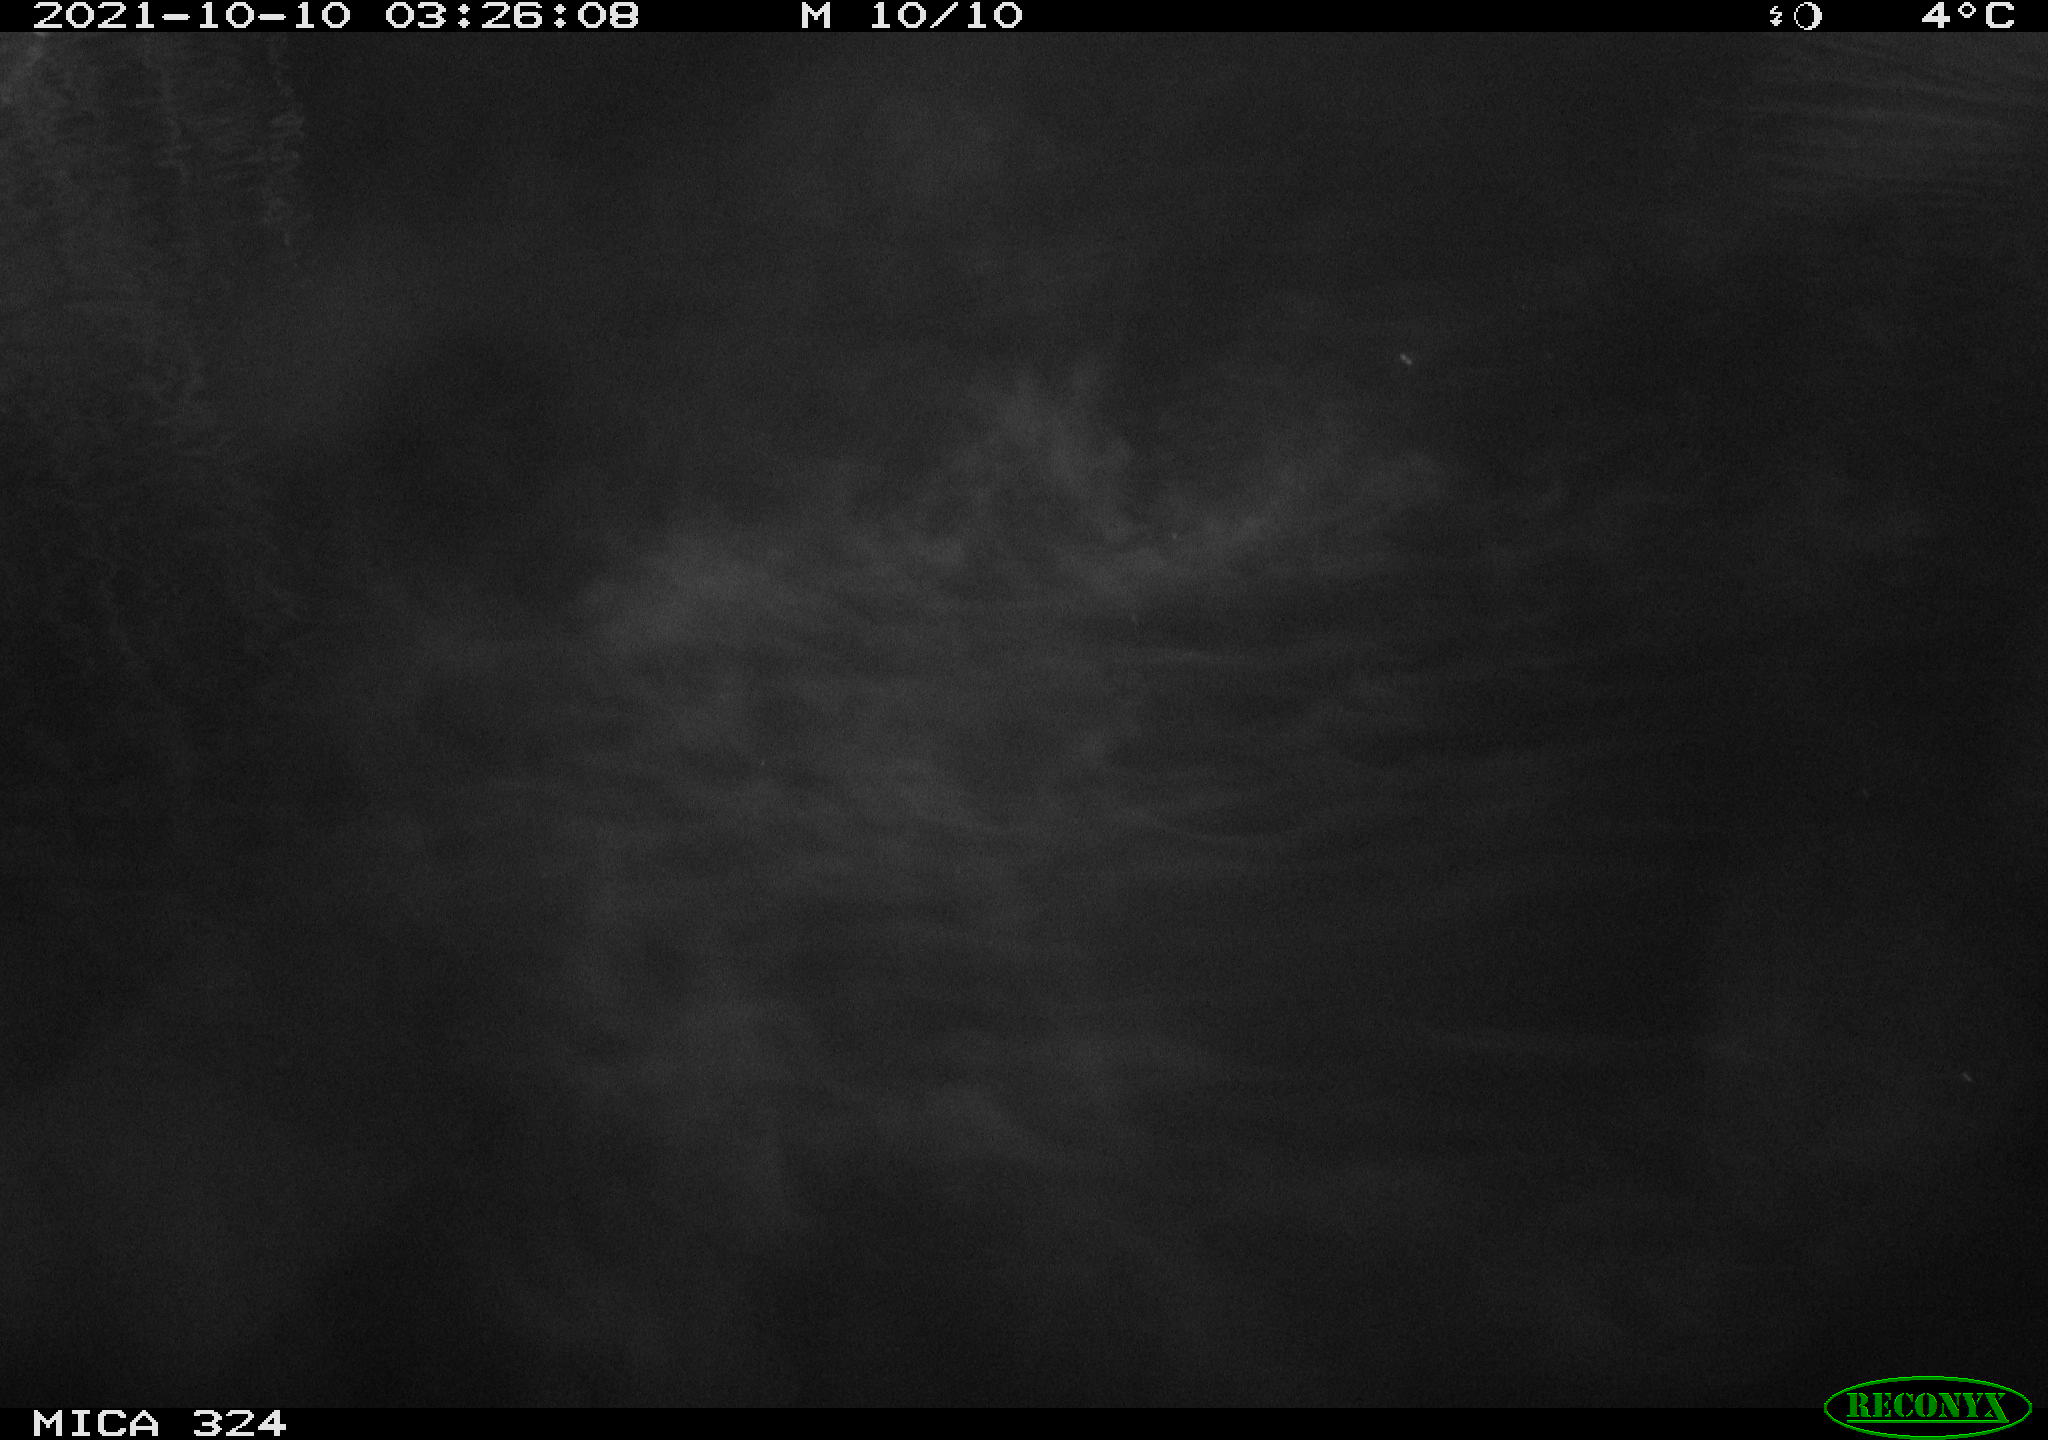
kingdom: Animalia
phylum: Chordata
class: Mammalia
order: Rodentia
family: Cricetidae
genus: Ondatra
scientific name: Ondatra zibethicus
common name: Muskrat
